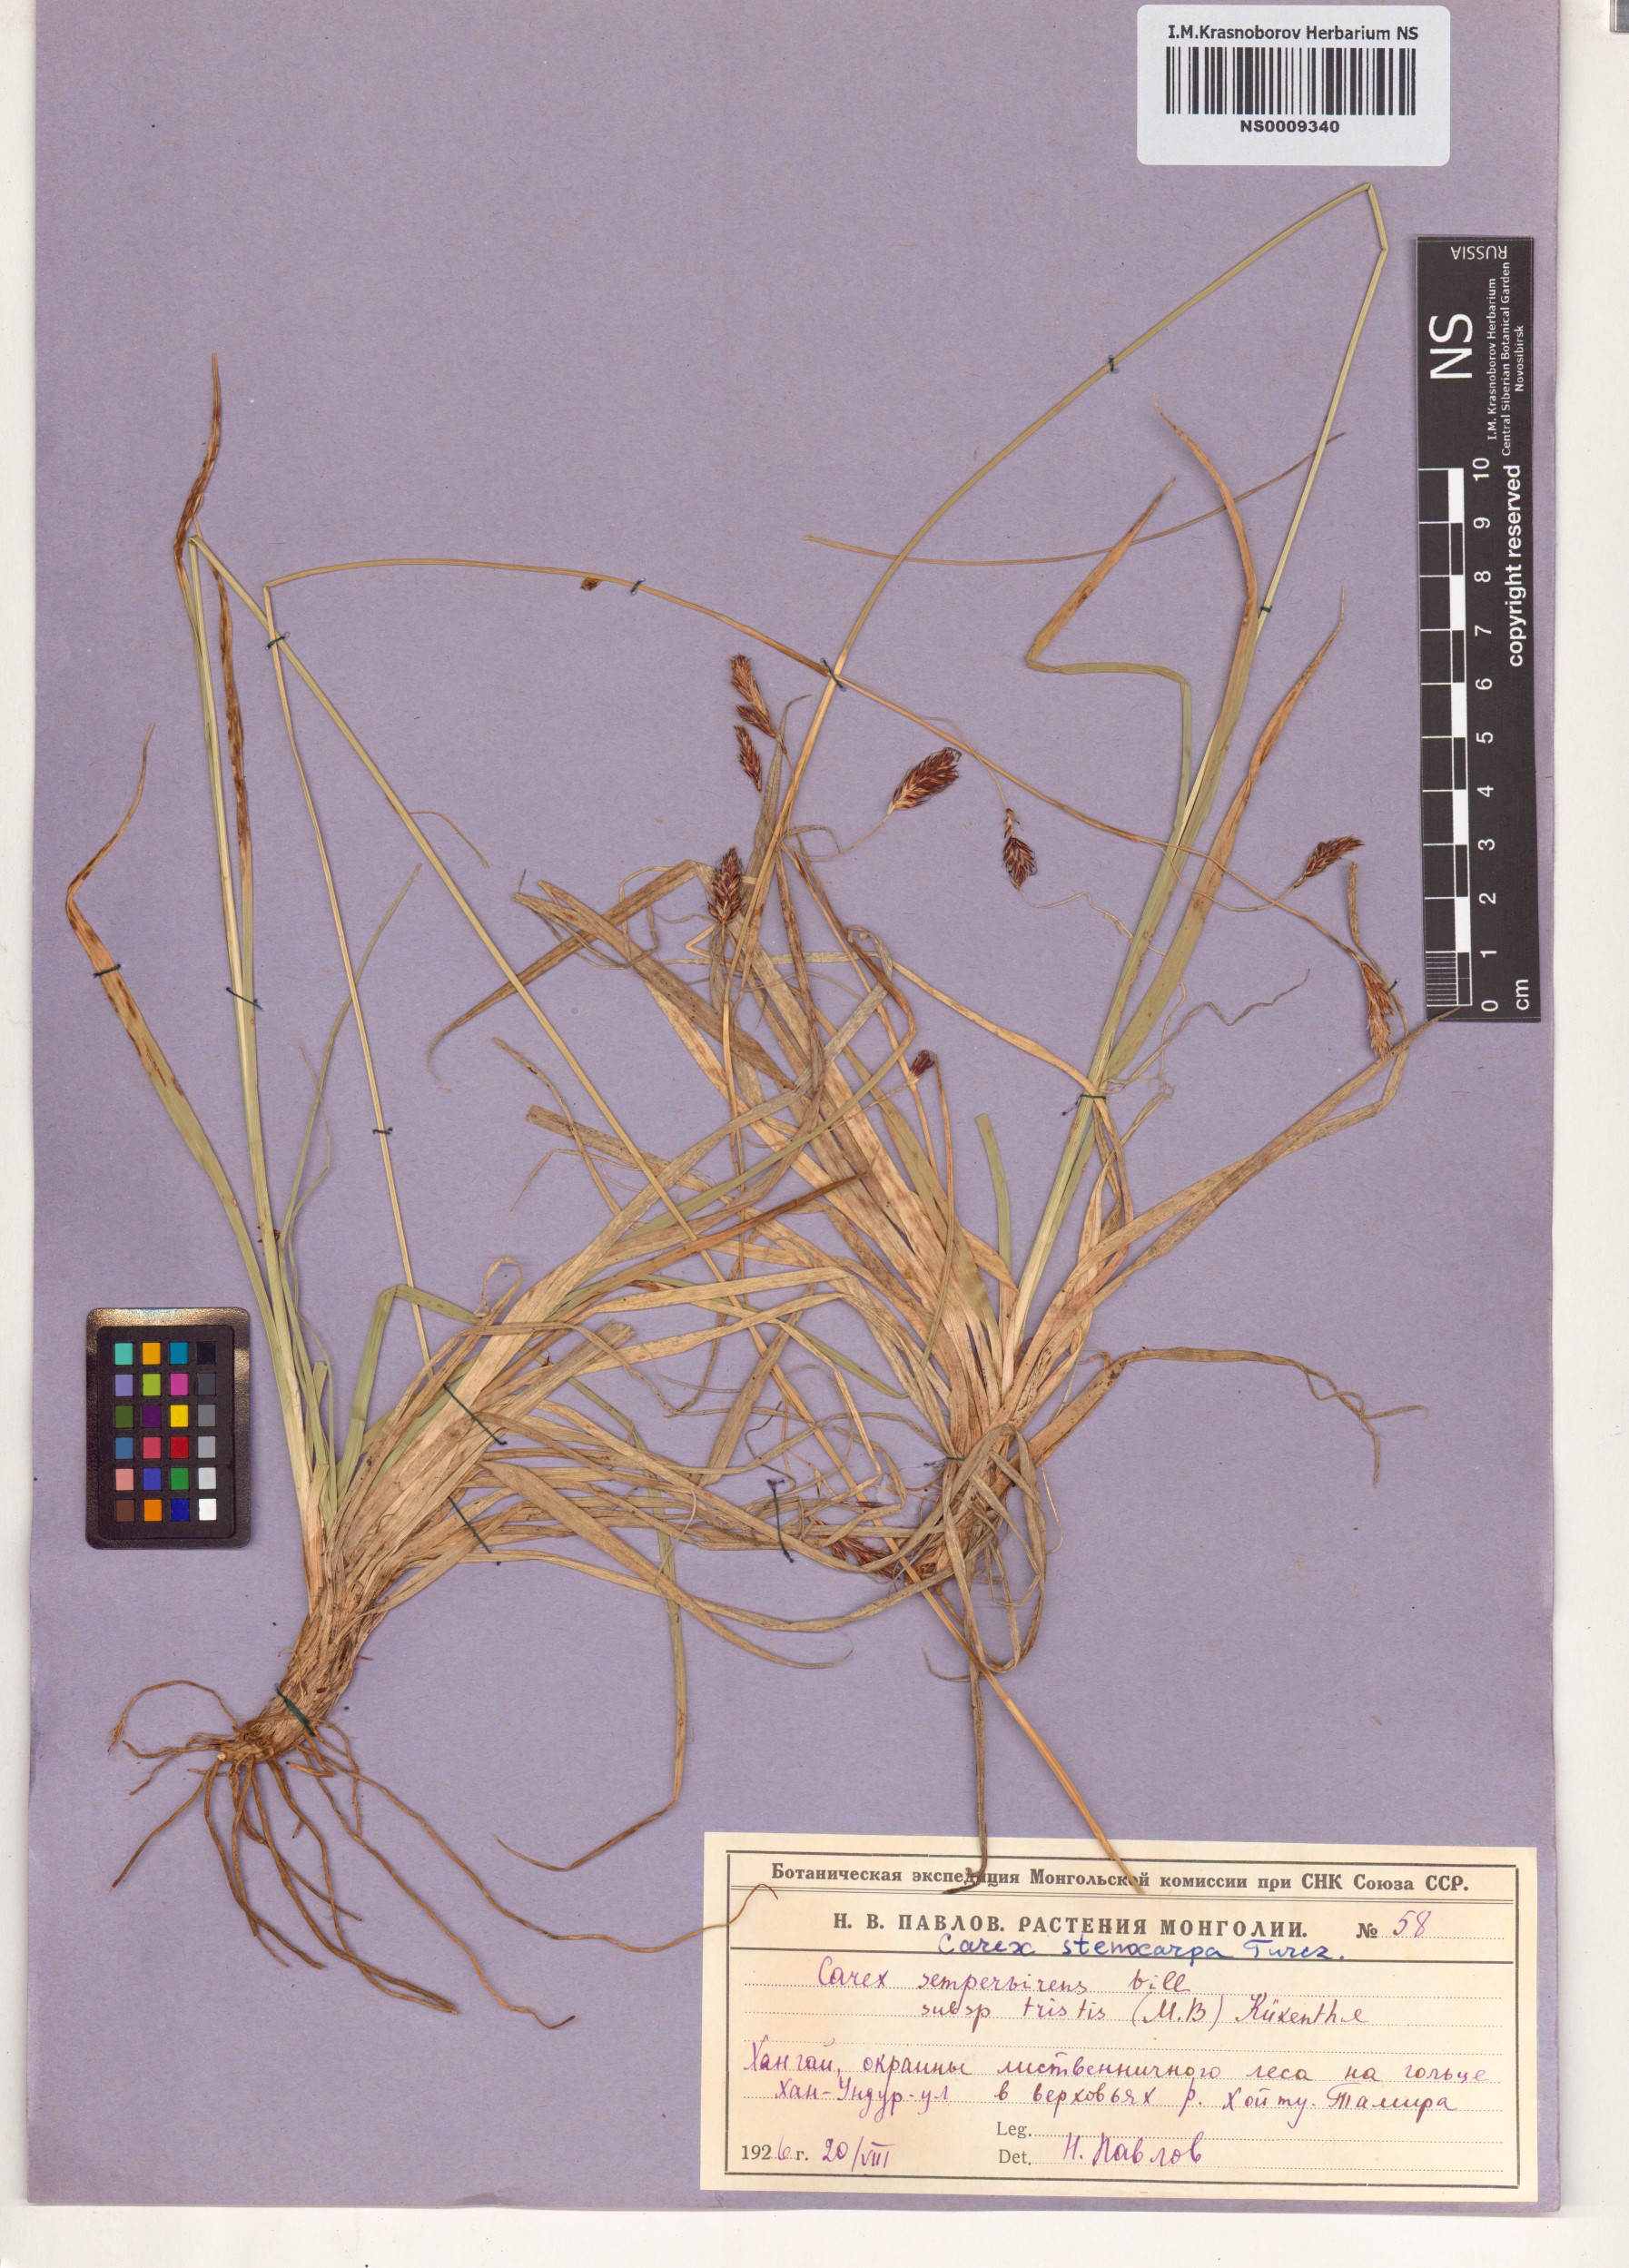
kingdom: Plantae
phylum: Tracheophyta
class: Liliopsida
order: Poales
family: Cyperaceae
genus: Carex
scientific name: Carex stenocarpa
